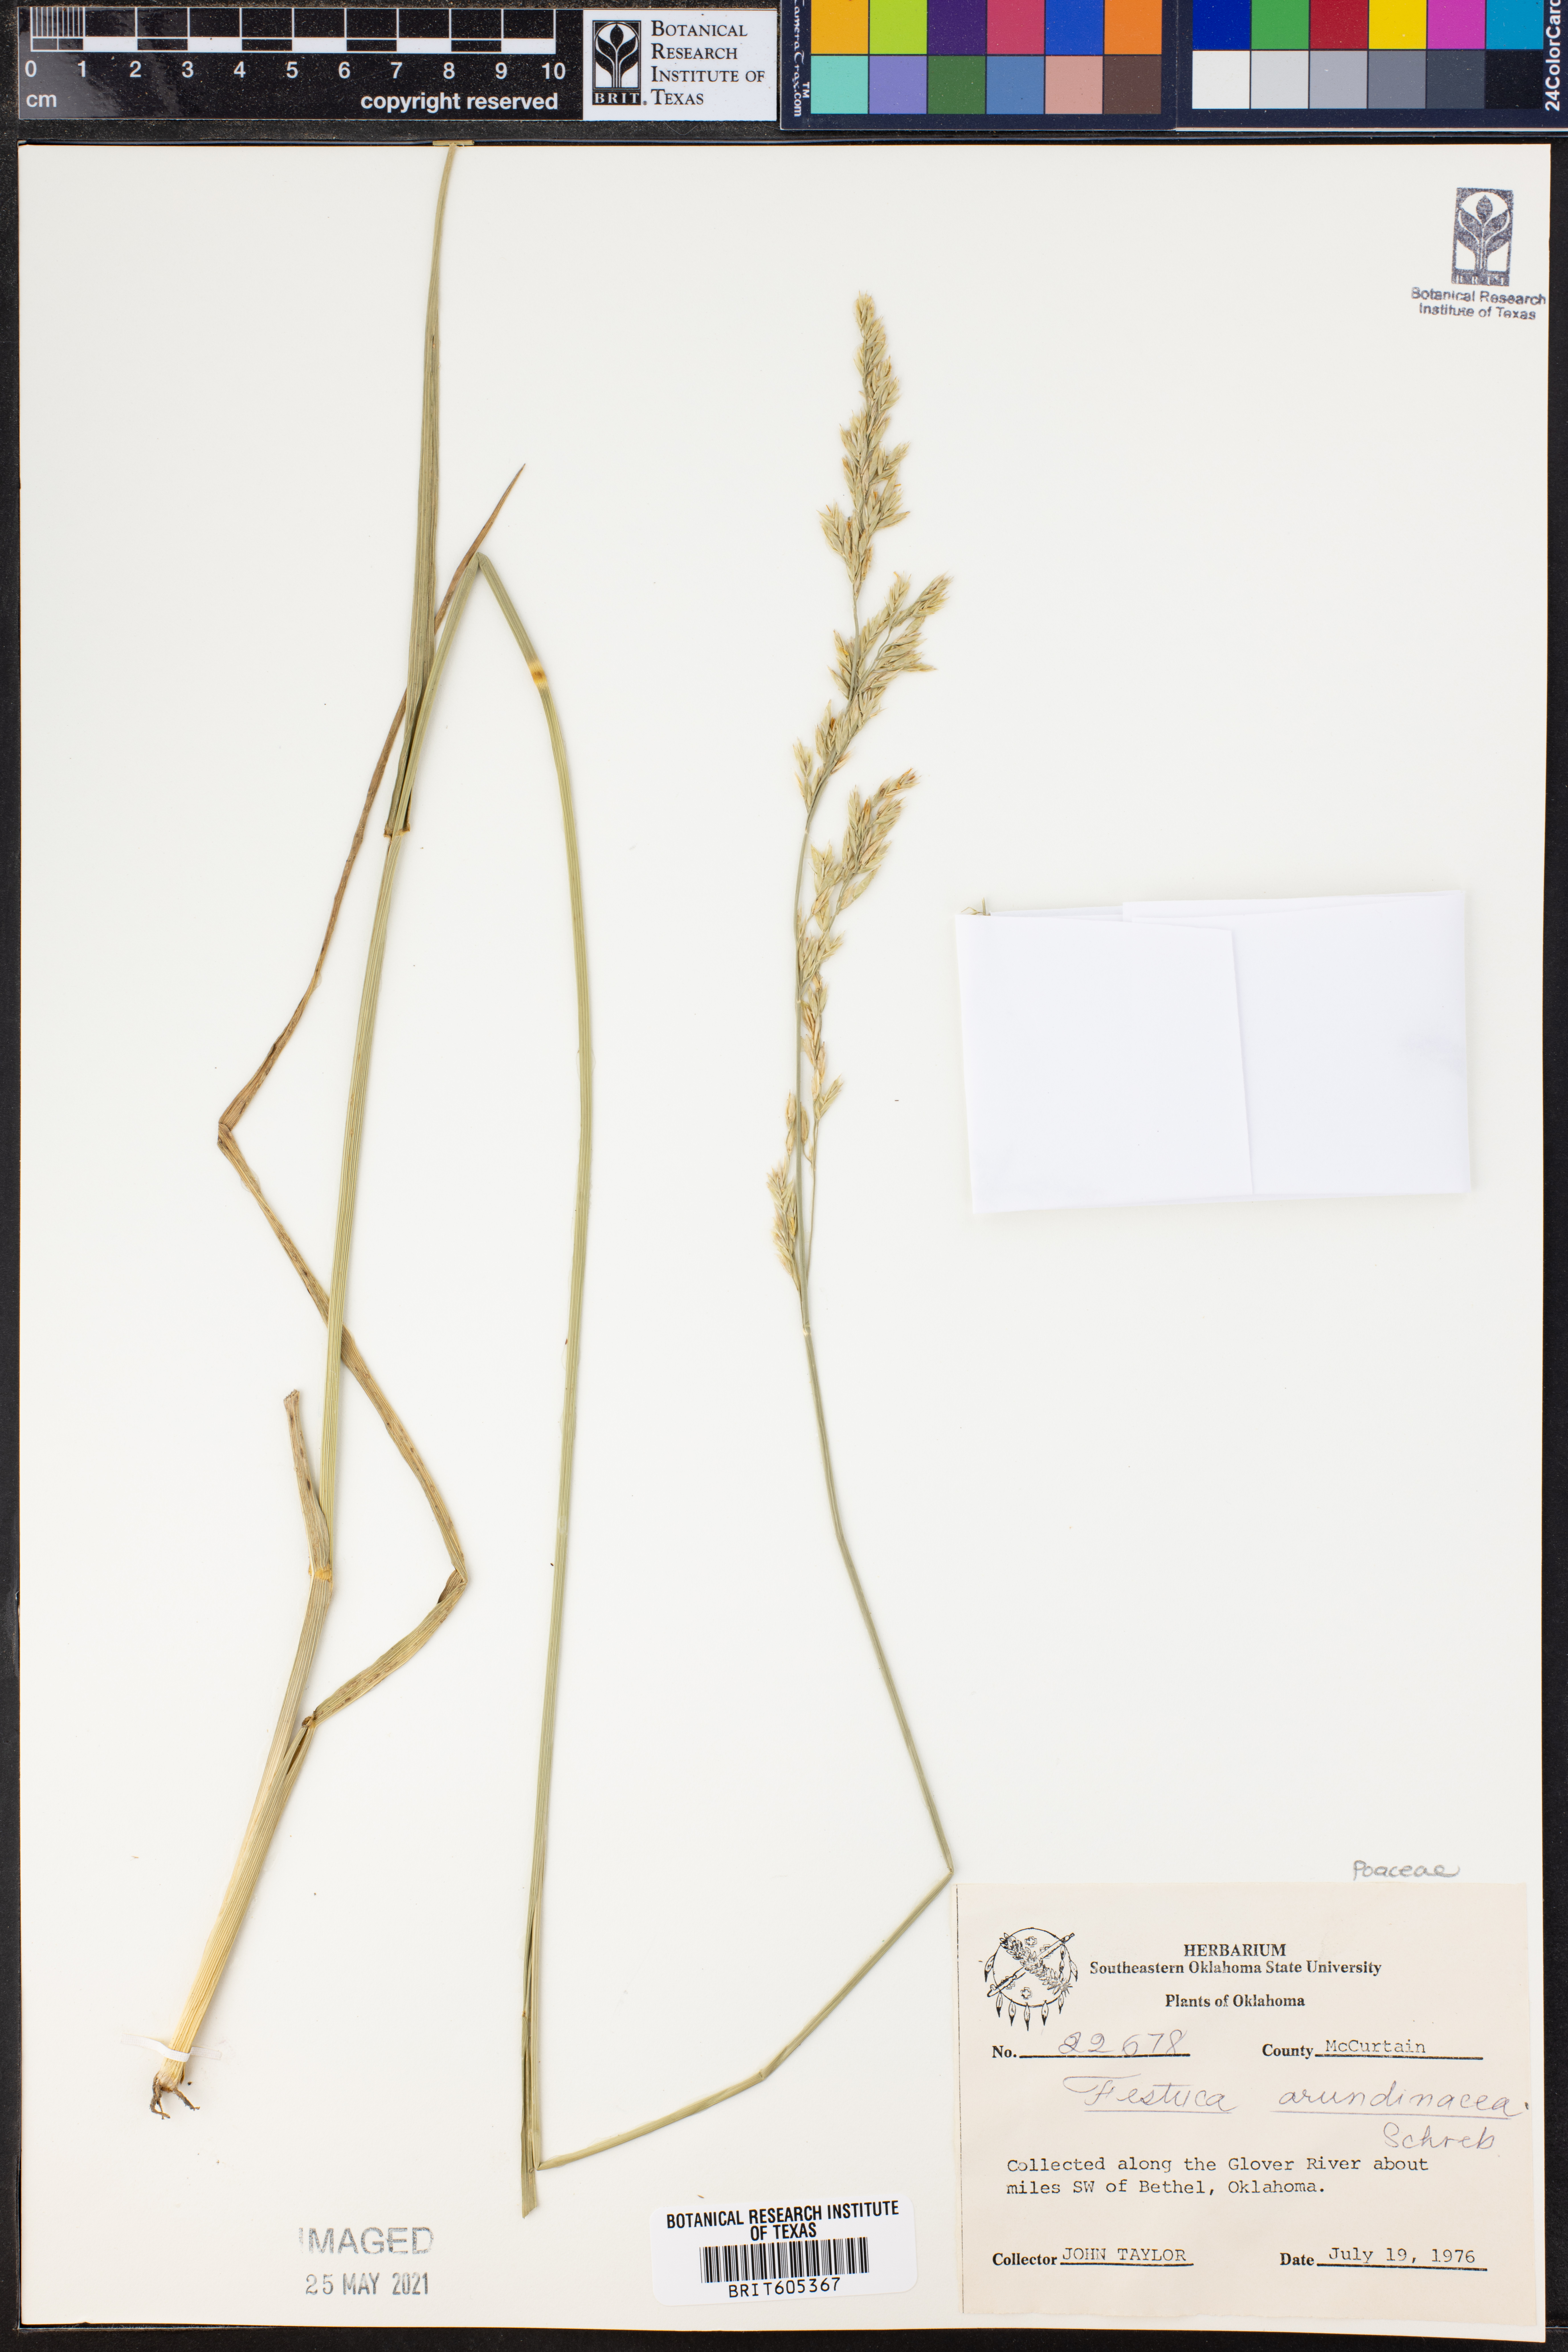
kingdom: Plantae
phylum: Tracheophyta
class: Liliopsida
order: Poales
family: Poaceae
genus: Lolium
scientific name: Lolium arundinaceum
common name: Reed fescue
